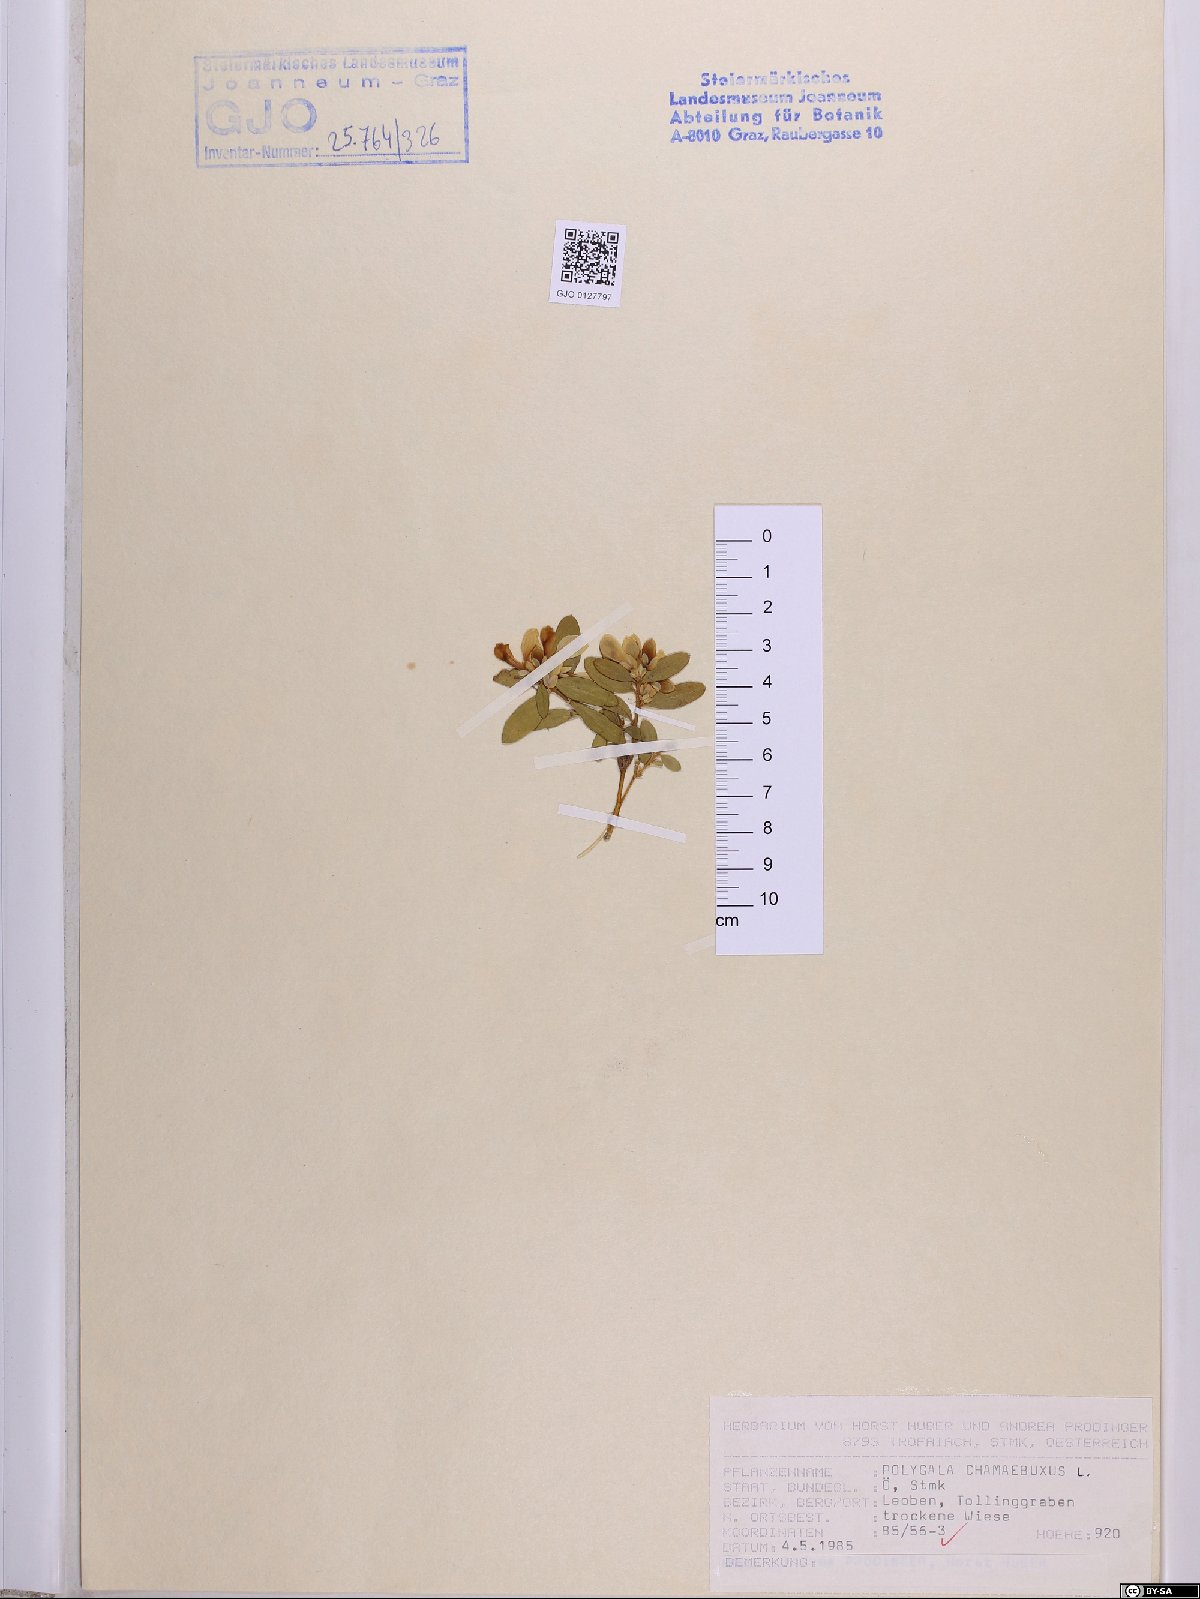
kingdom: Plantae
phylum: Tracheophyta
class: Magnoliopsida
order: Fabales
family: Polygalaceae
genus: Polygaloides
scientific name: Polygaloides chamaebuxus
